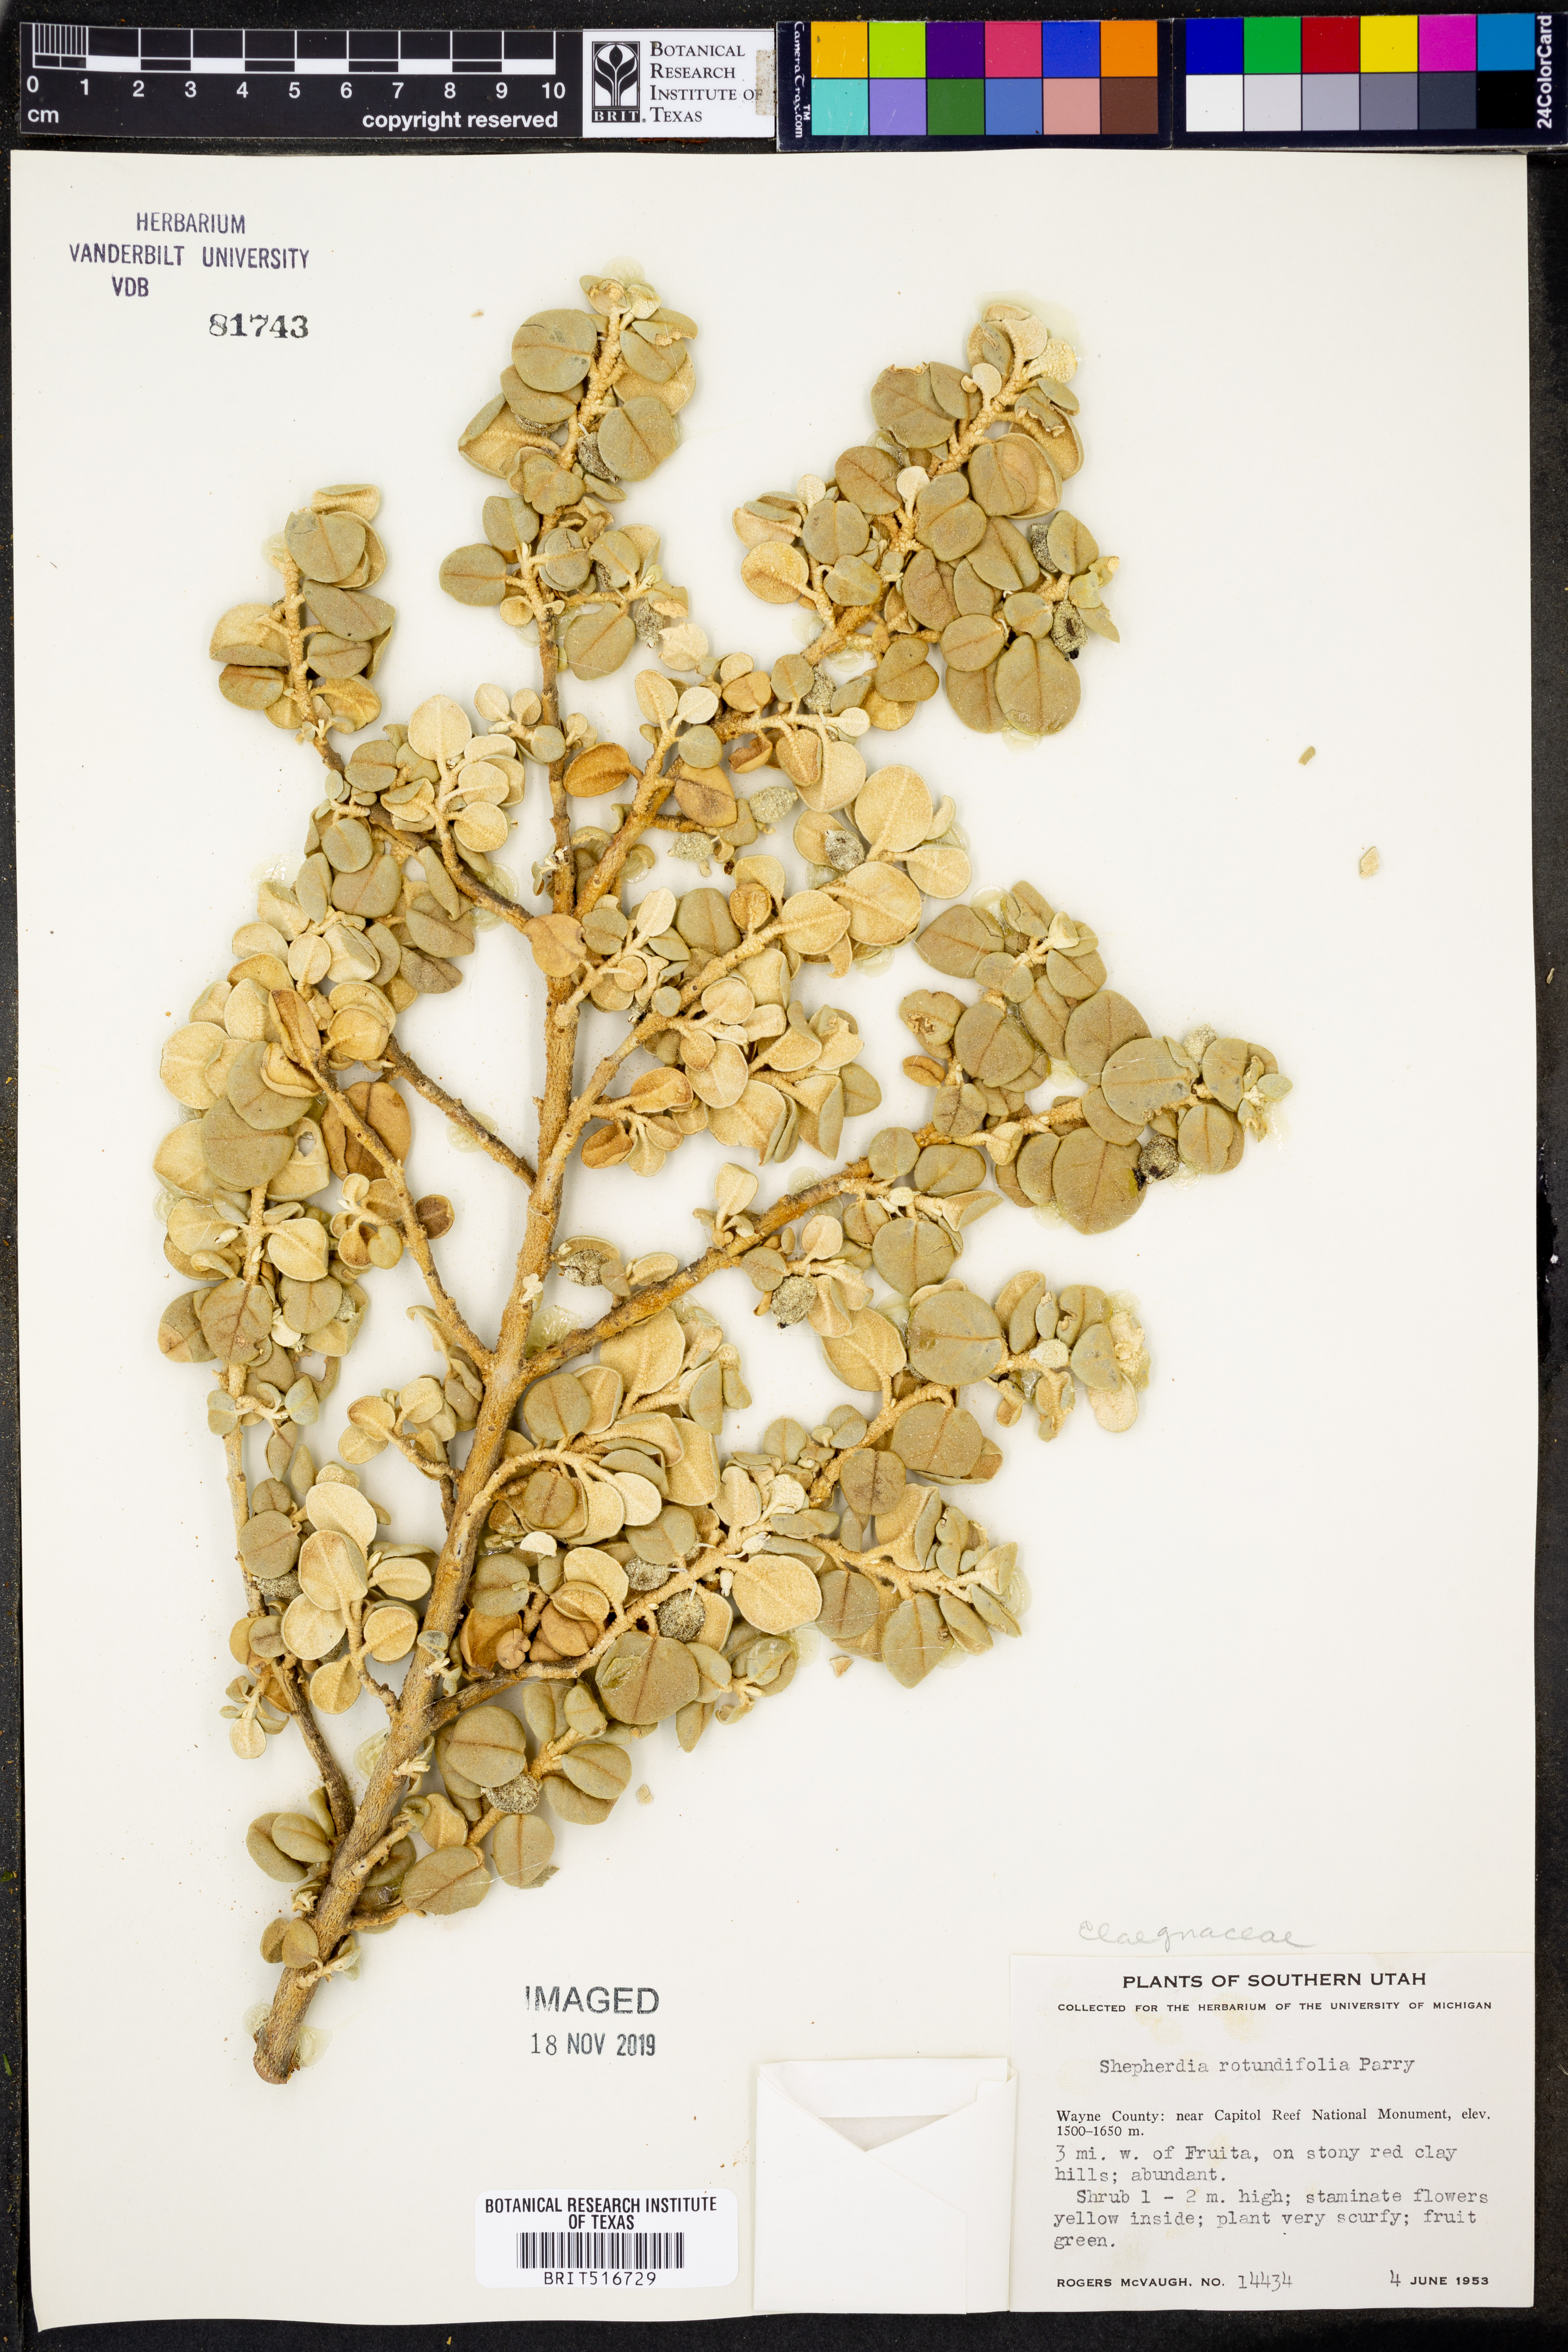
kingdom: Plantae
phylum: Tracheophyta
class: Magnoliopsida
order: Rosales
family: Elaeagnaceae
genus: Shepherdia
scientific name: Shepherdia rotundifolia
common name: Silverscale
